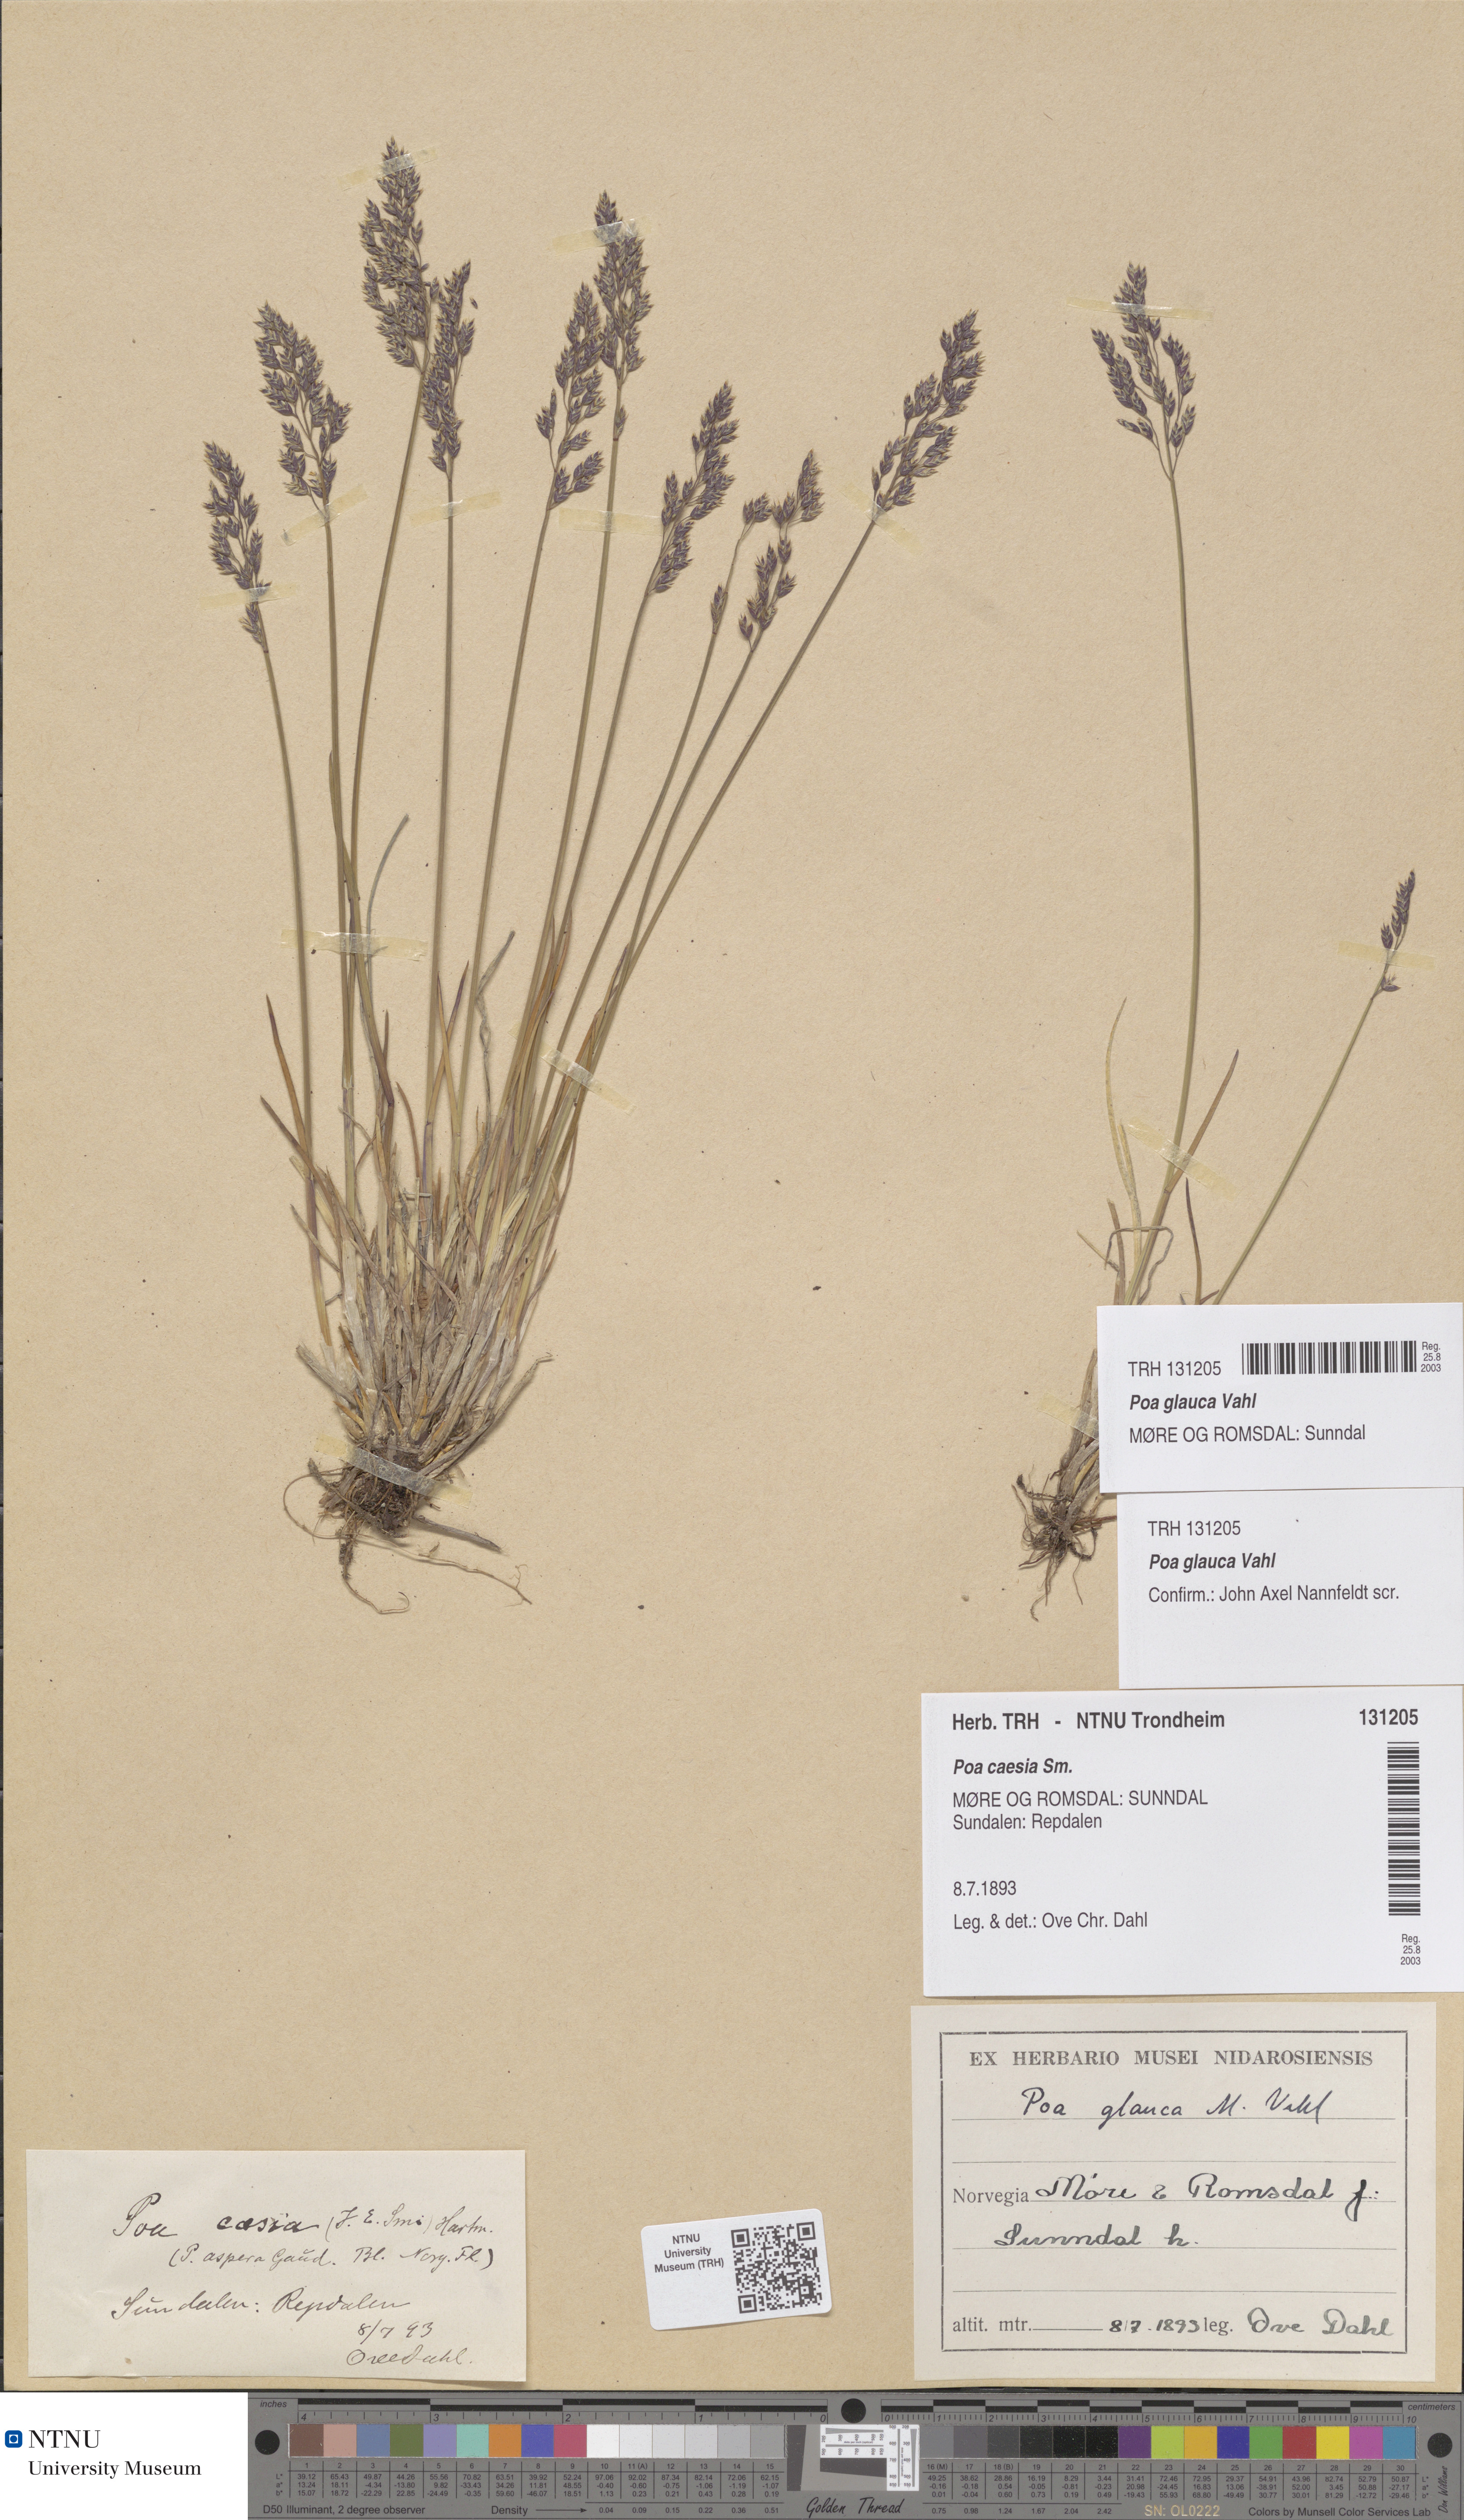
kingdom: Plantae
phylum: Tracheophyta
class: Liliopsida
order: Poales
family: Poaceae
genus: Poa
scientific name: Poa glauca
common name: Glaucous bluegrass
